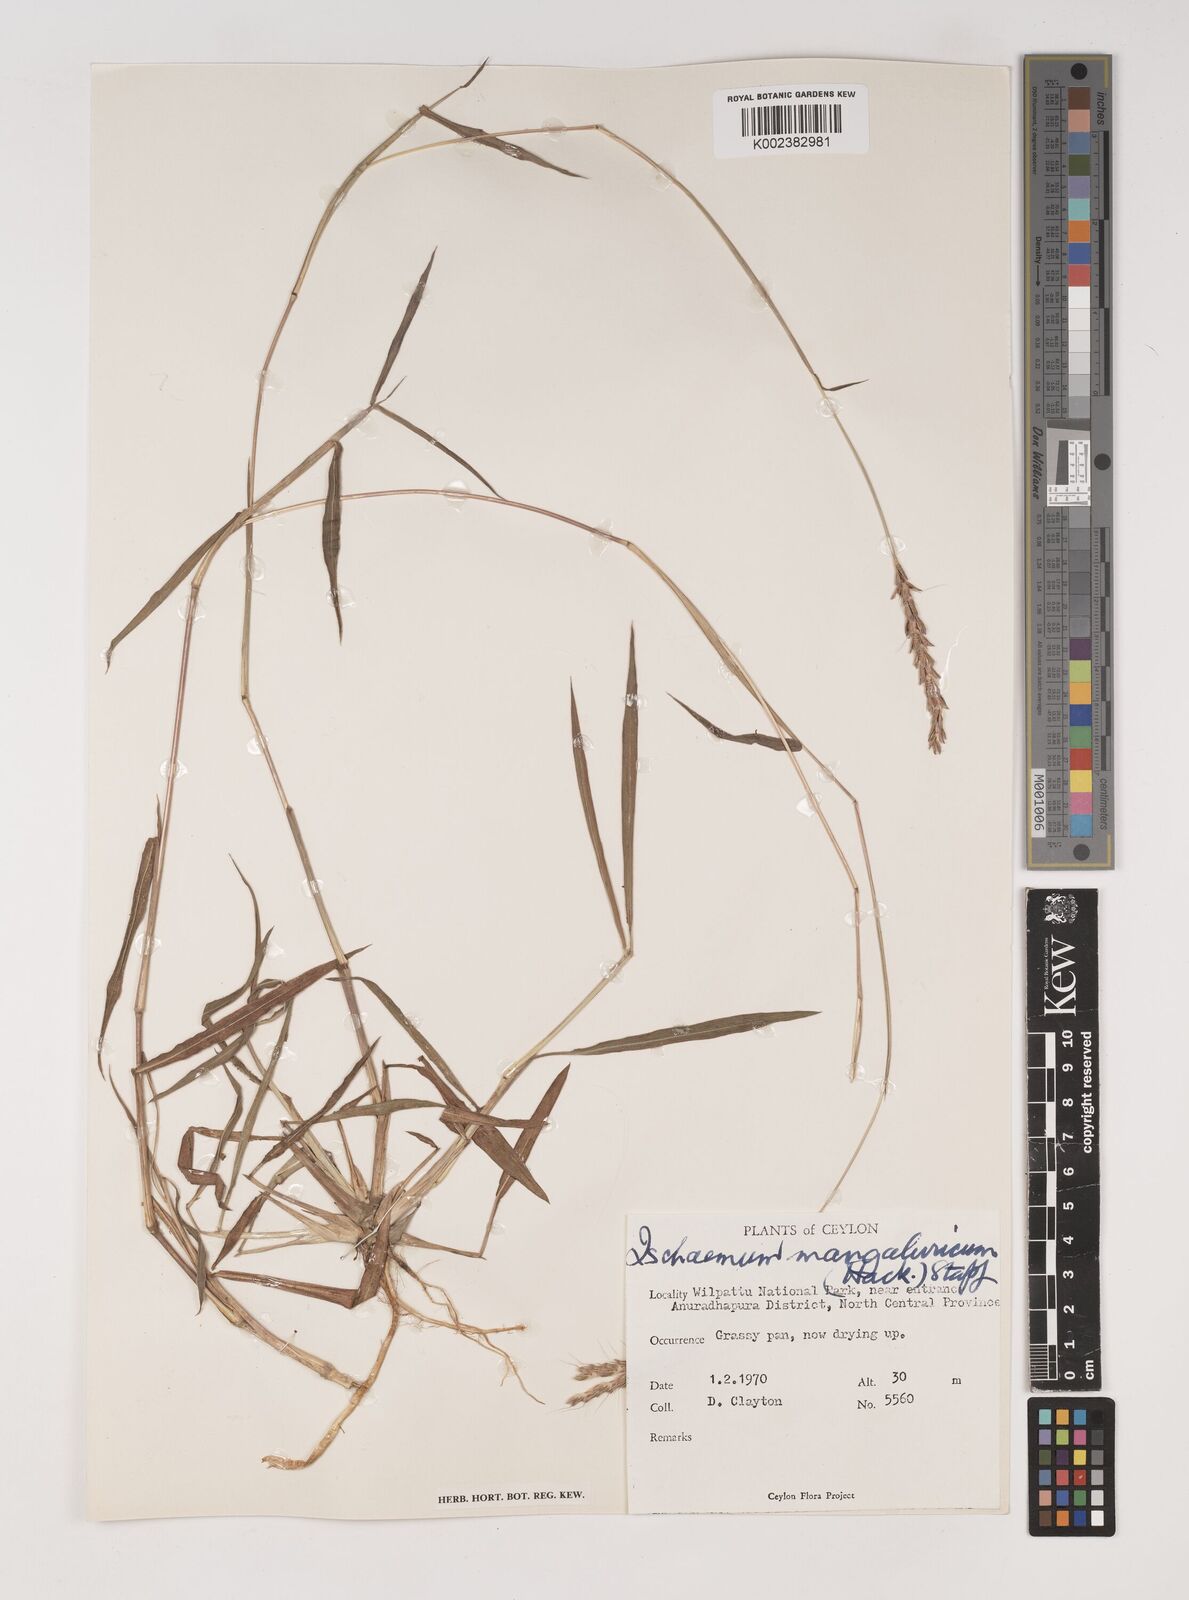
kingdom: Plantae
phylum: Tracheophyta
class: Liliopsida
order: Poales
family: Poaceae
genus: Ischaemum
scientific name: Ischaemum barbatum
